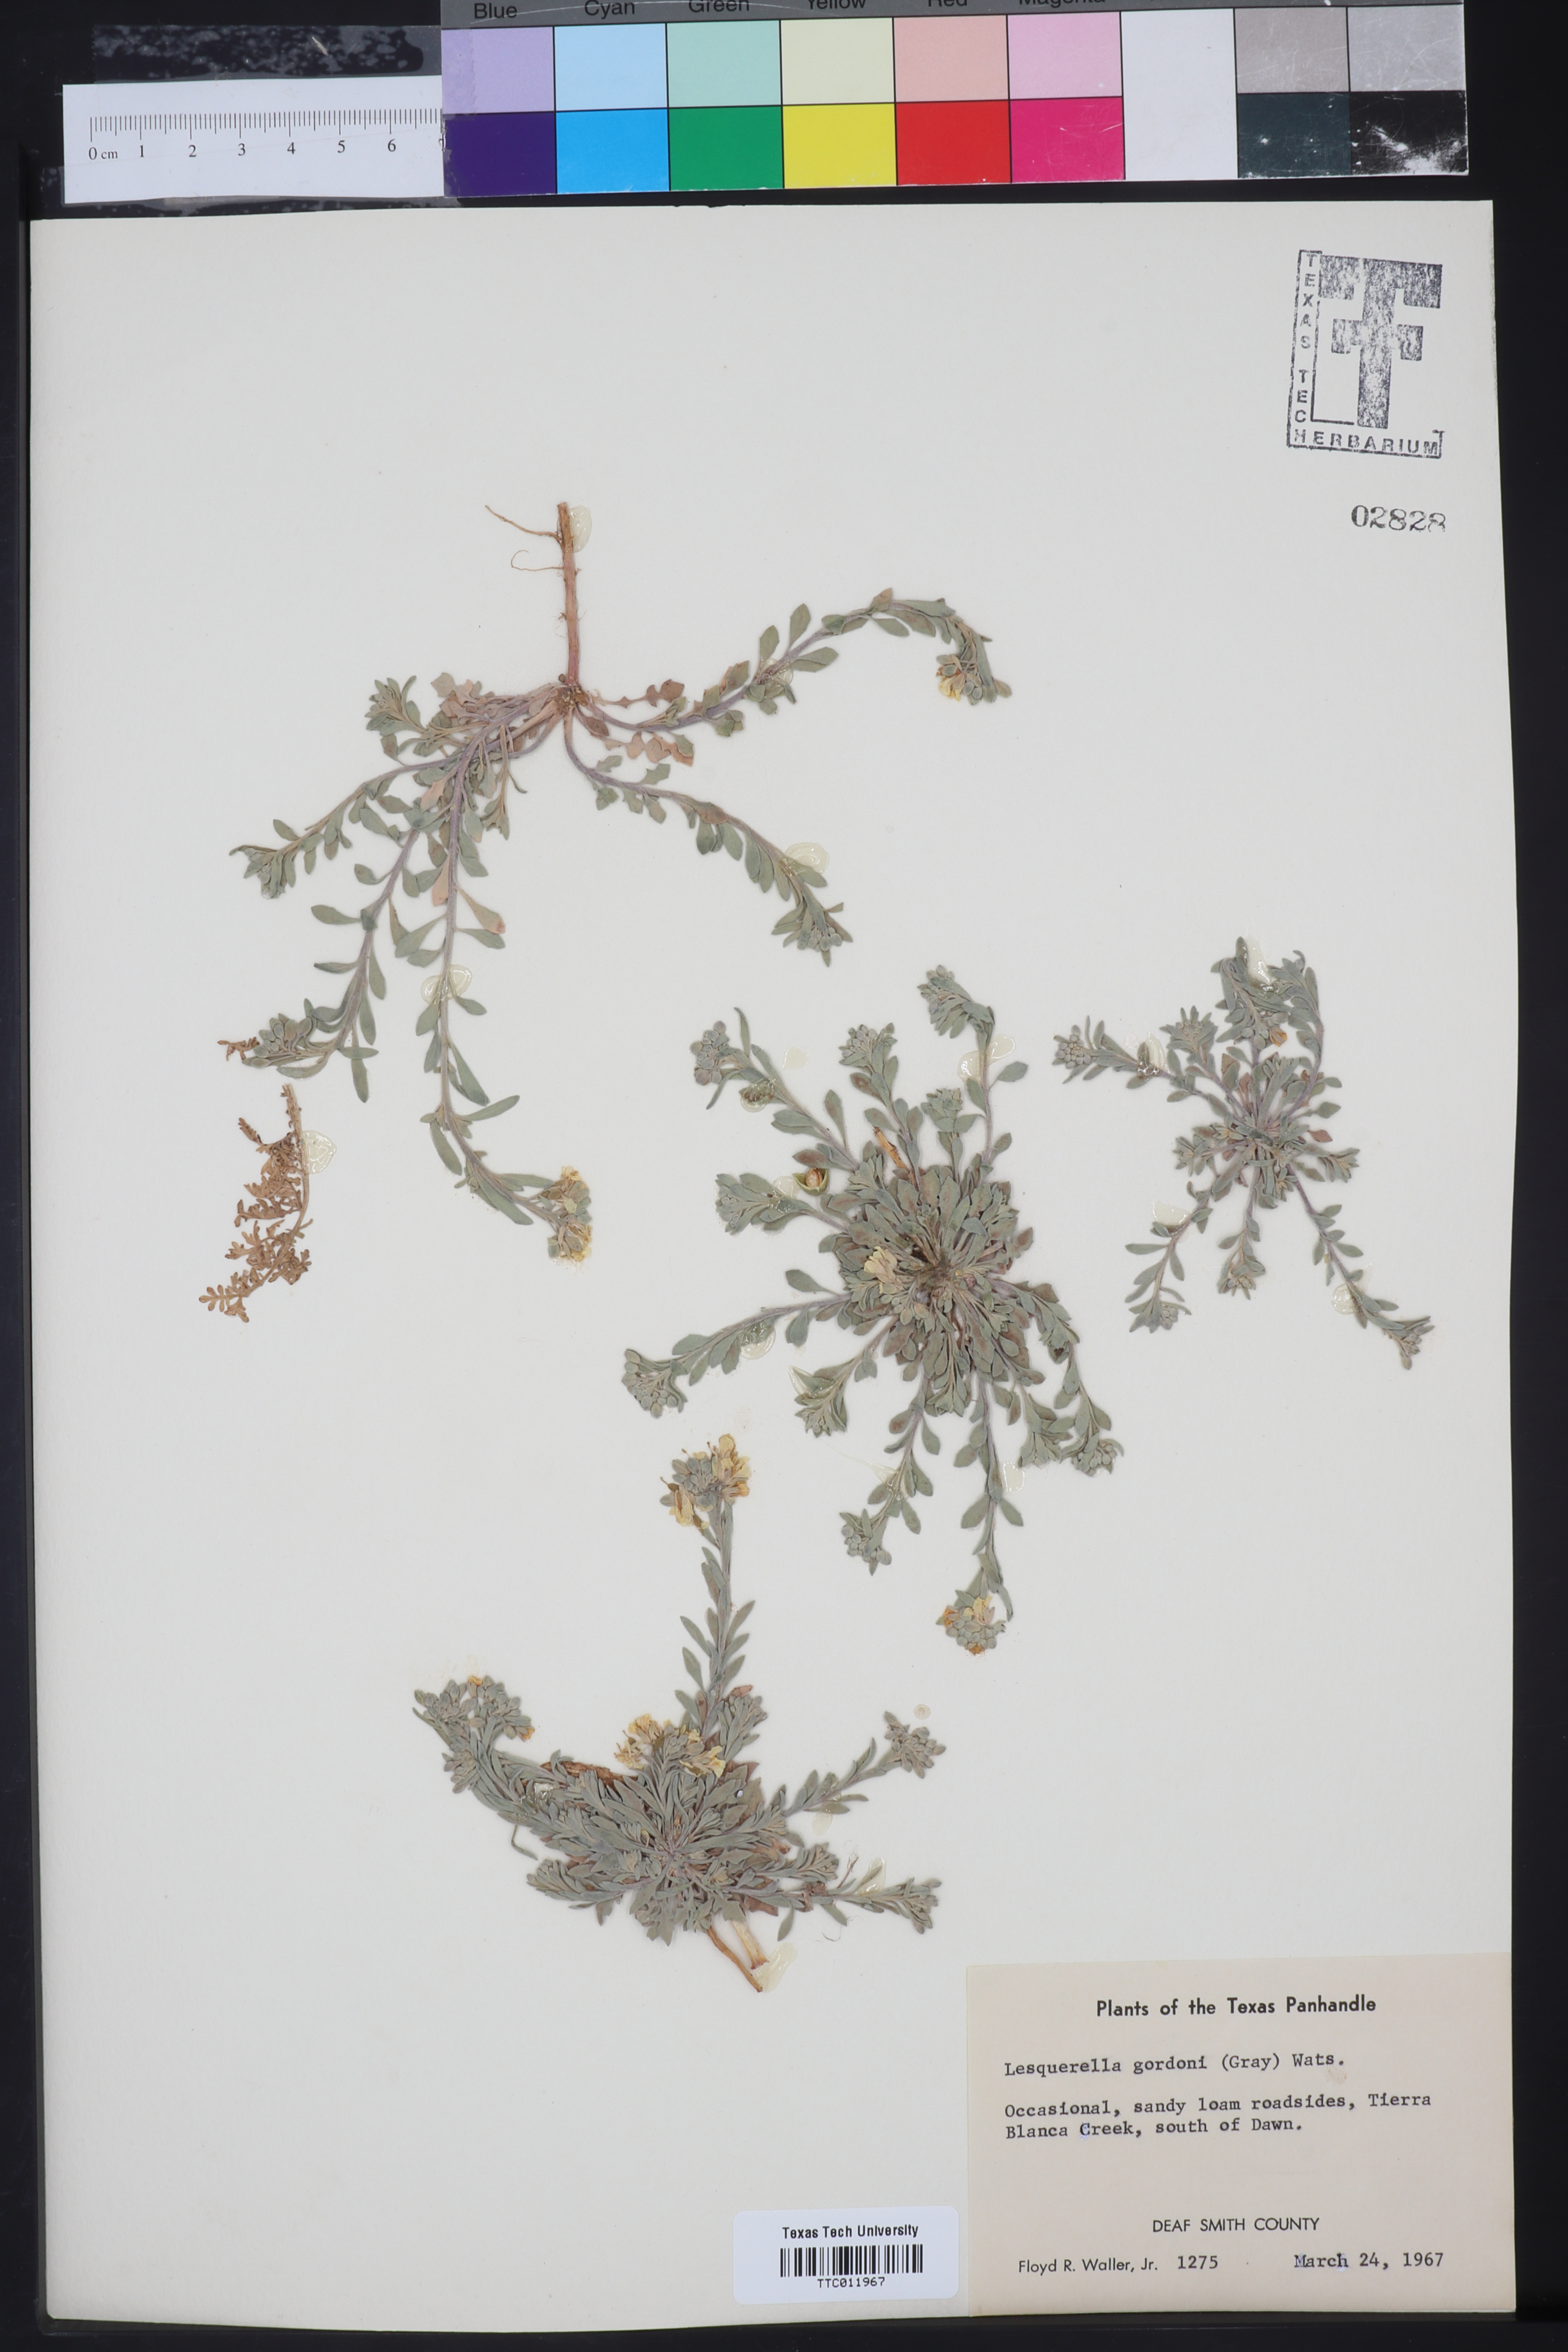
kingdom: Plantae
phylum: Tracheophyta
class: Magnoliopsida
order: Brassicales
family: Brassicaceae
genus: Physaria
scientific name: Physaria gordonii
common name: Gordon's bladderpod
